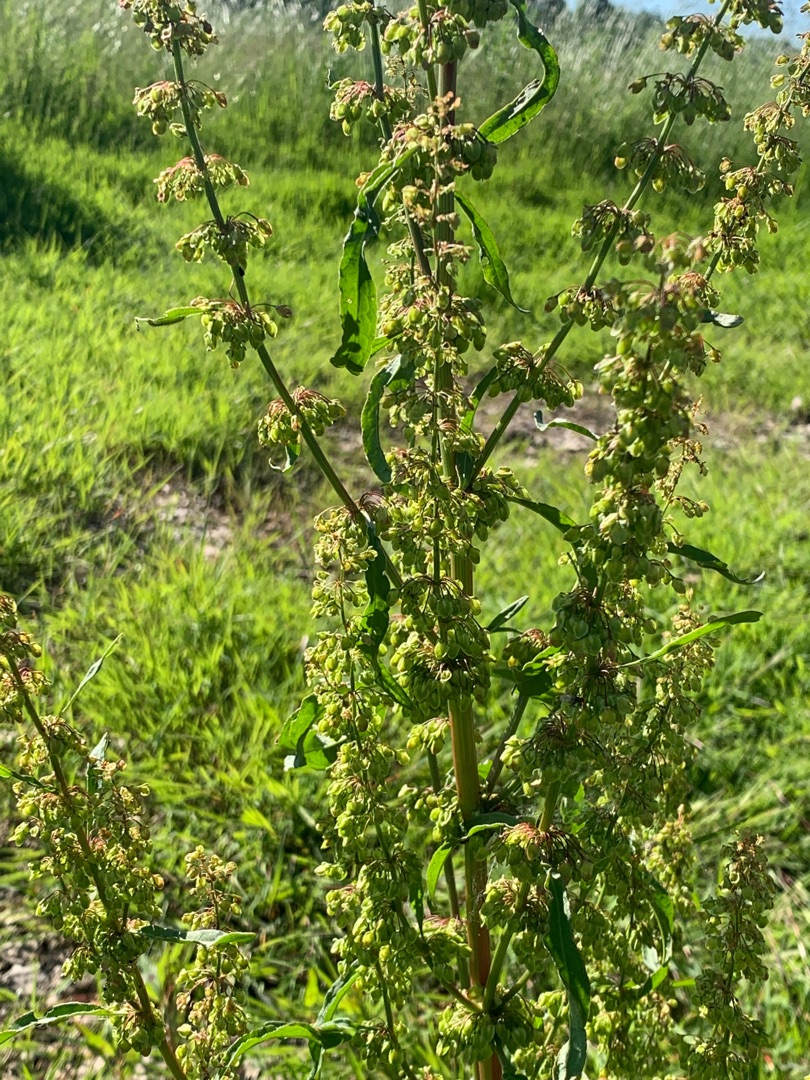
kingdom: Plantae
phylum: Tracheophyta
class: Magnoliopsida
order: Caryophyllales
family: Polygonaceae
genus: Rumex
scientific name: Rumex crispus
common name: Kruset skræppe
